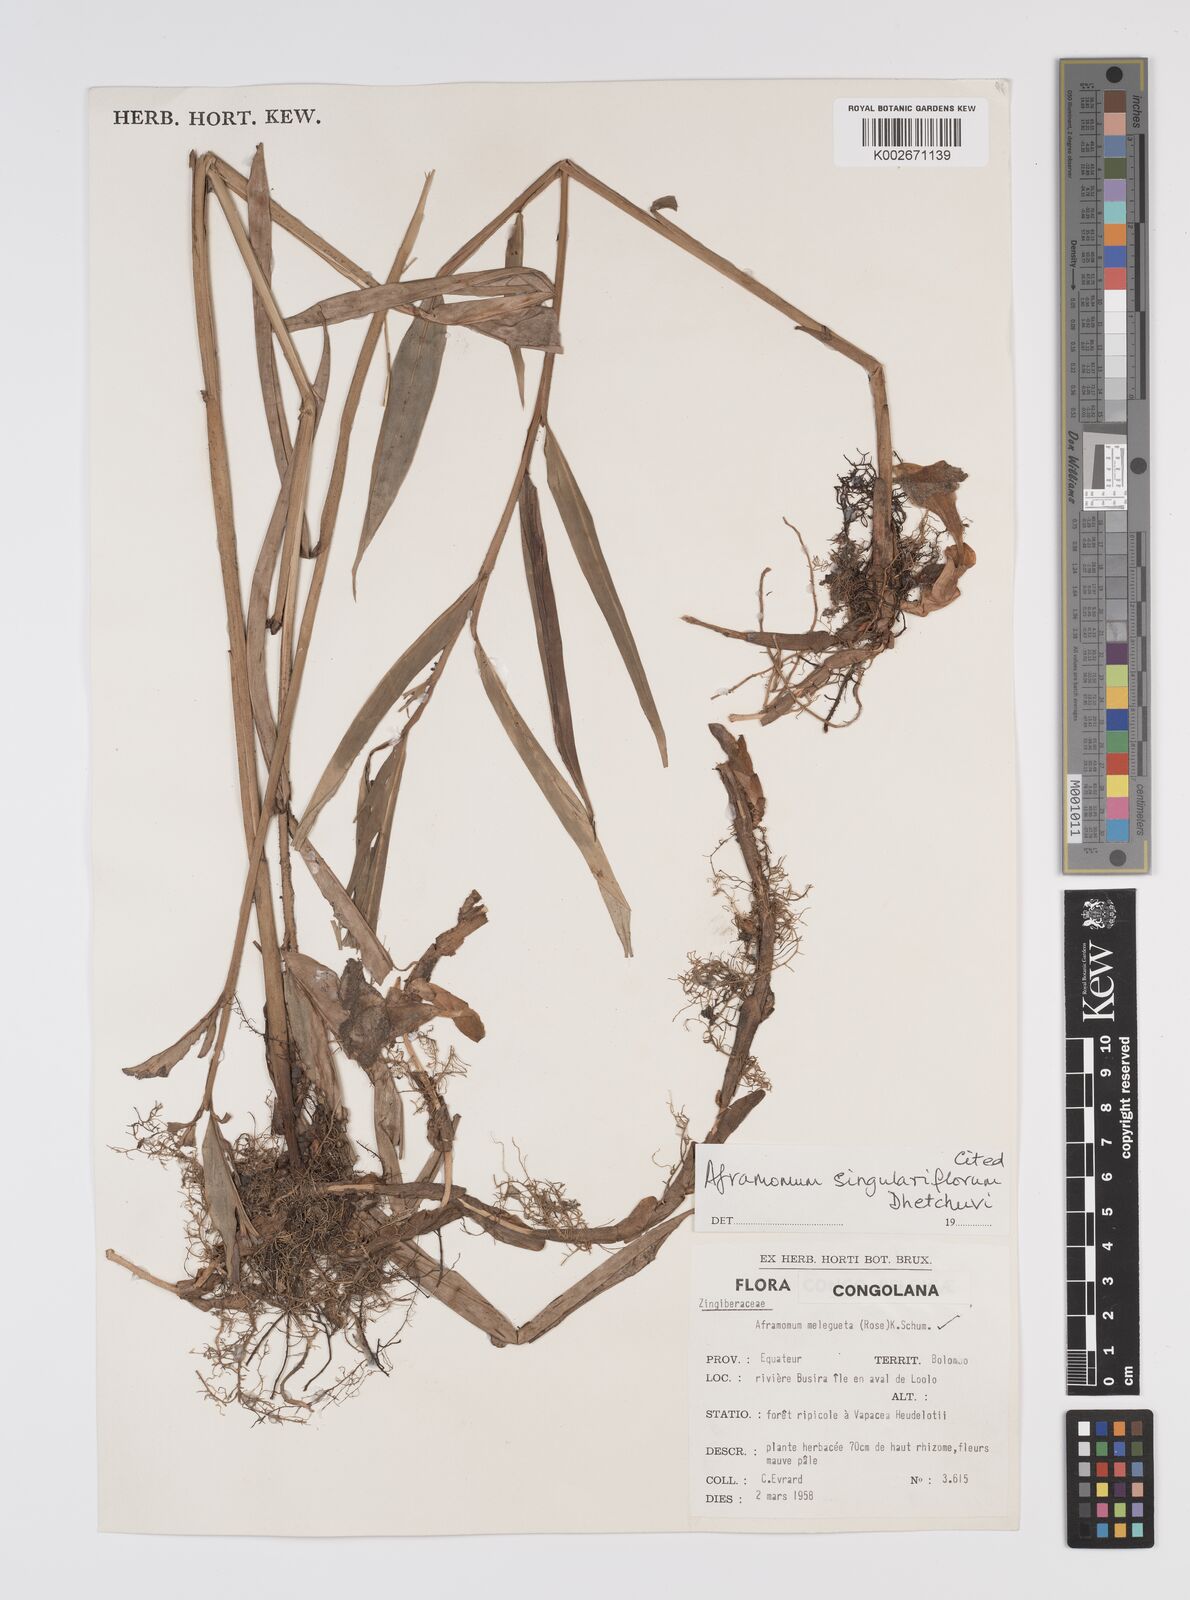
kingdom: Plantae
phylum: Tracheophyta
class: Liliopsida
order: Zingiberales
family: Zingiberaceae
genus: Aframomum
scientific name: Aframomum singulariflorum
